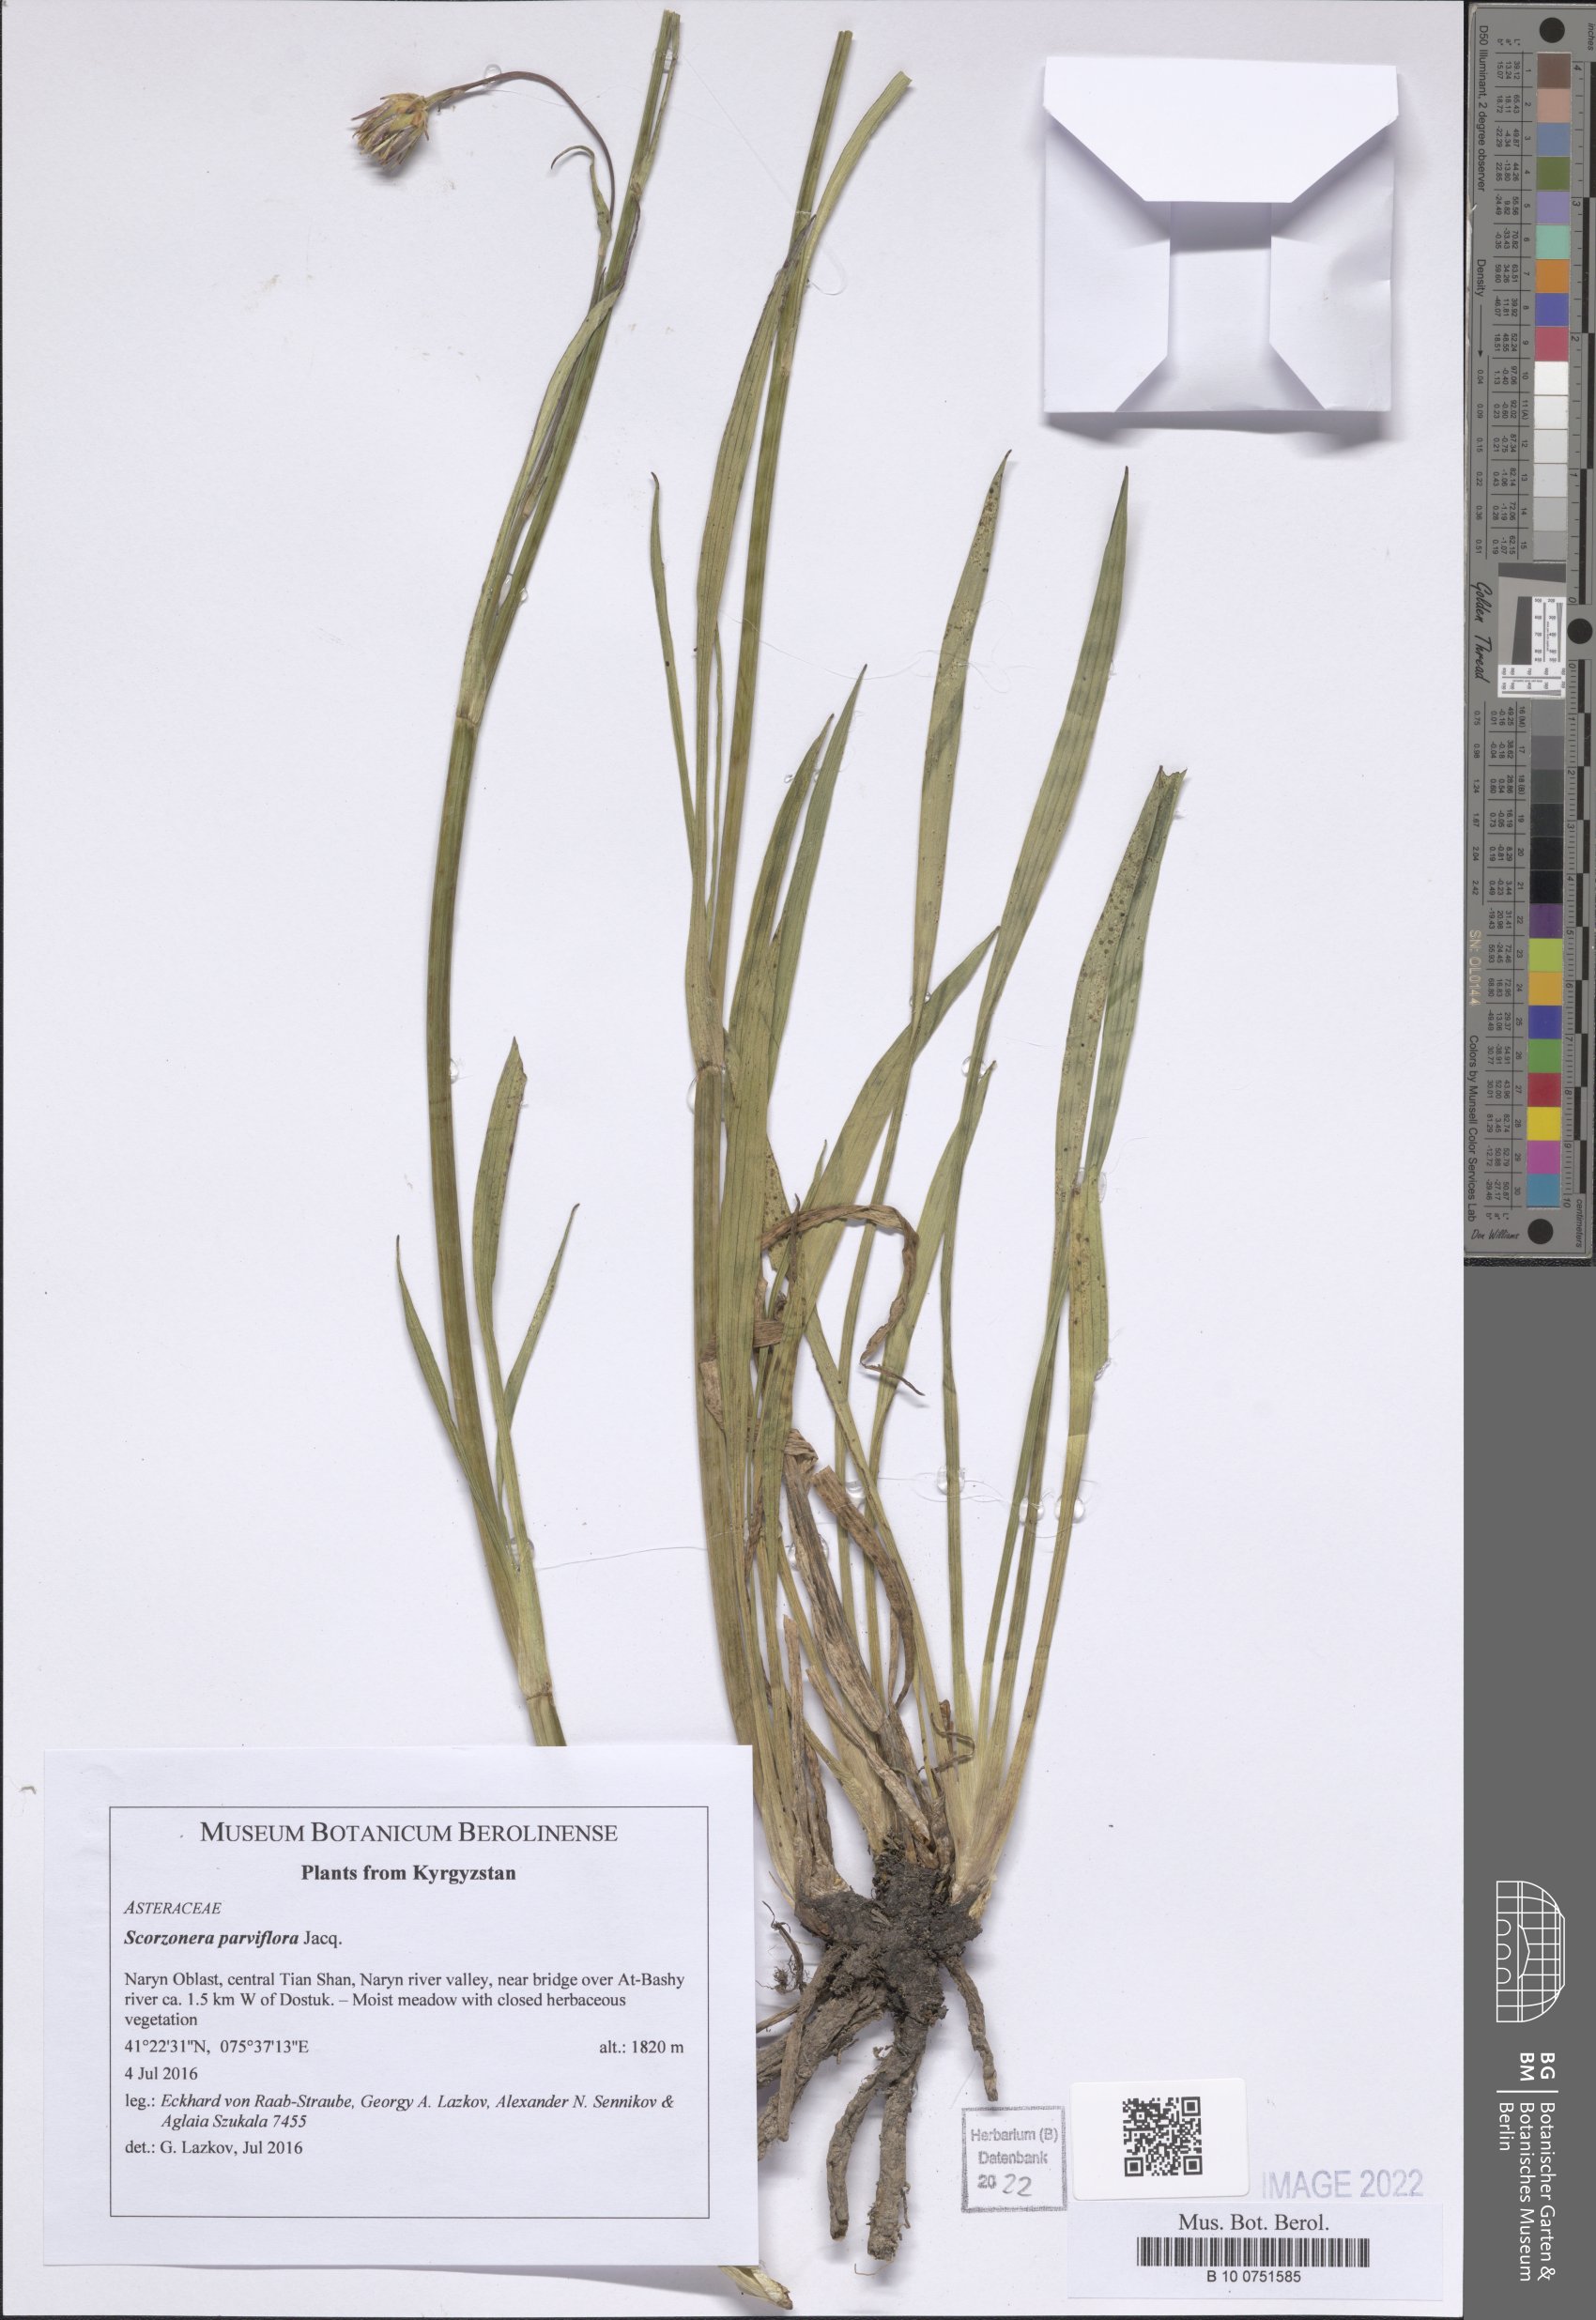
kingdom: Plantae
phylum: Tracheophyta
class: Magnoliopsida
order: Asterales
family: Asteraceae
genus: Scorzonera
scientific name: Scorzonera parviflora
